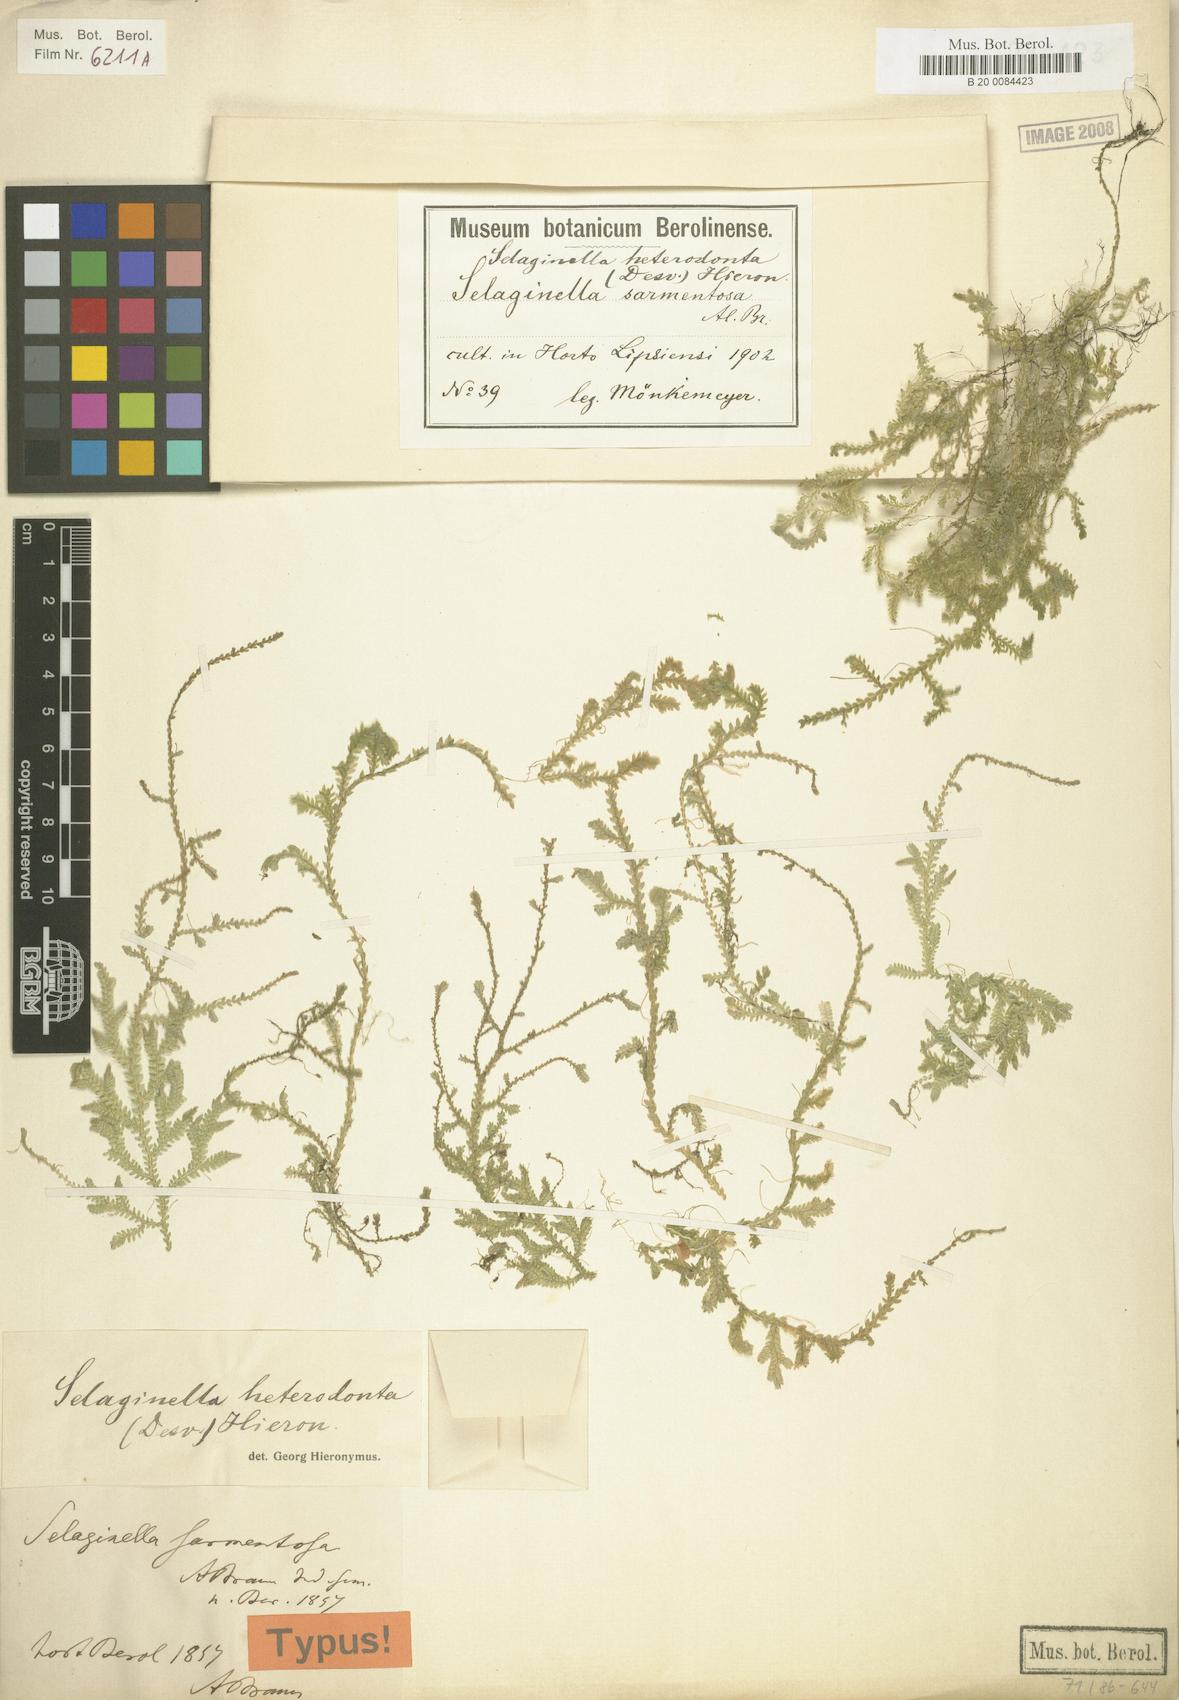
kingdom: Plantae
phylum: Tracheophyta
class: Lycopodiopsida
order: Selaginellales
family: Selaginellaceae
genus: Selaginella
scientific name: Selaginella heterodonta
